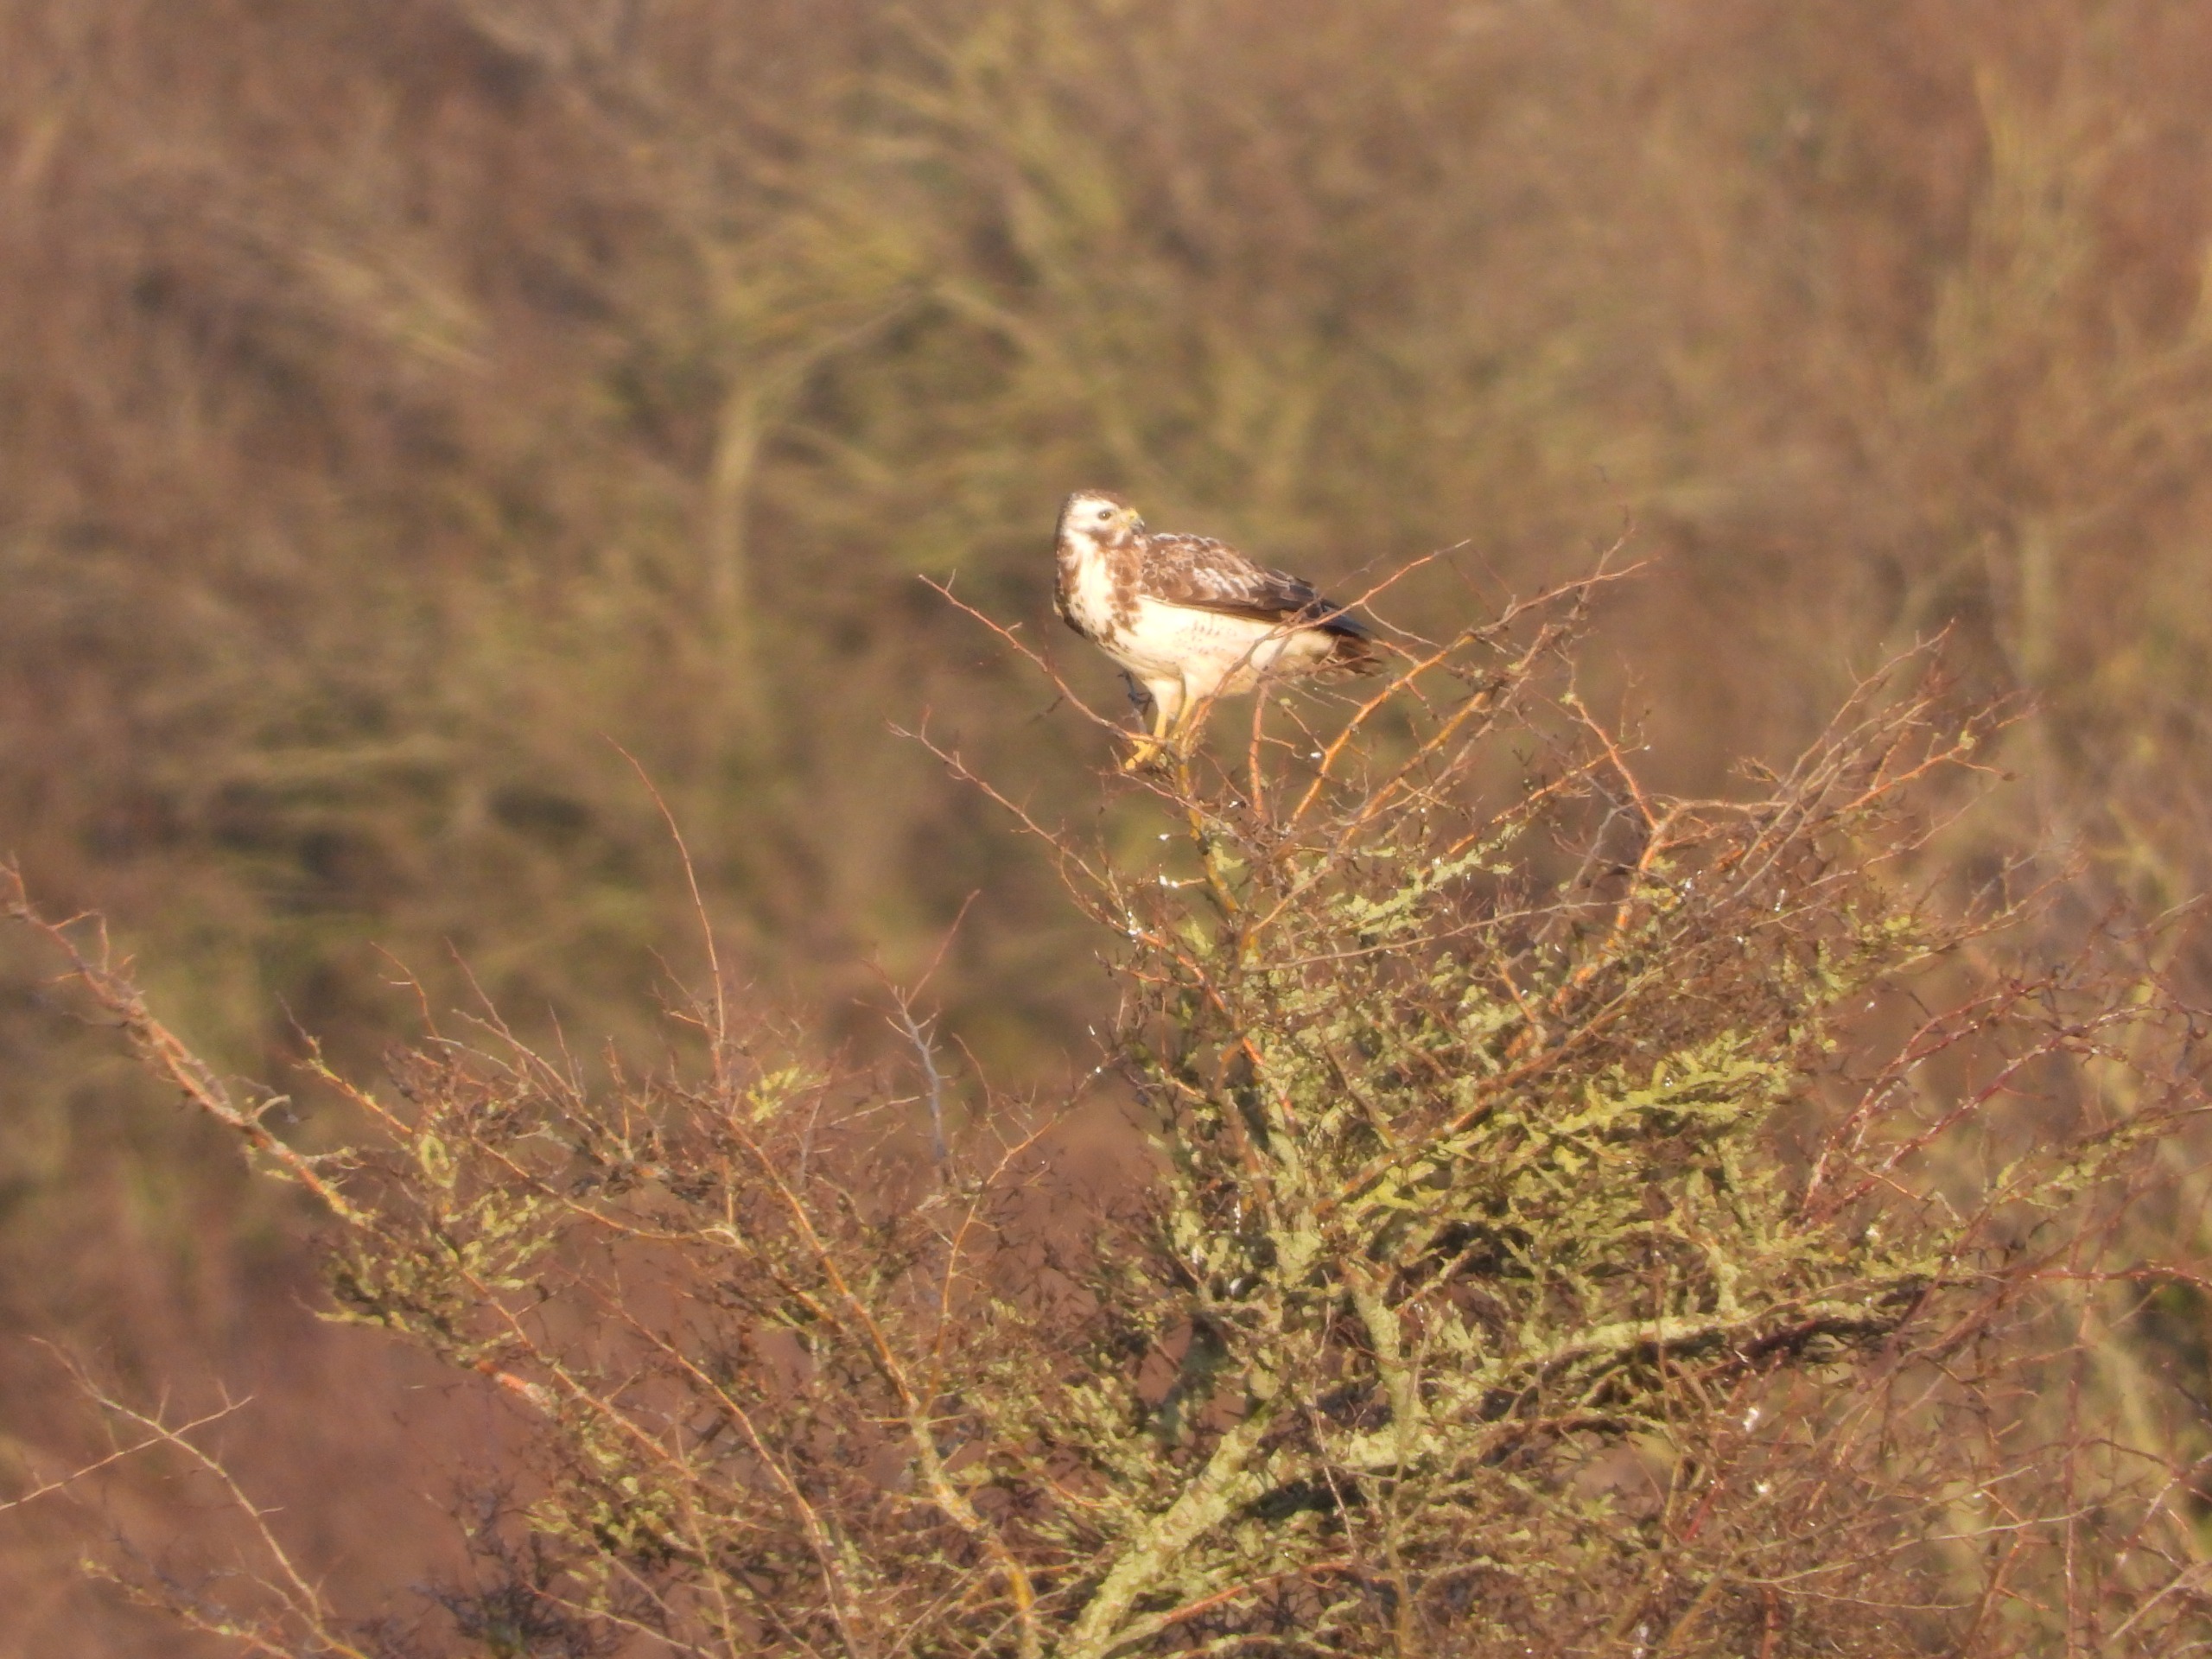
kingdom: Animalia
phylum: Chordata
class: Aves
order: Accipitriformes
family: Accipitridae
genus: Buteo
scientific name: Buteo buteo
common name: Musvåge
